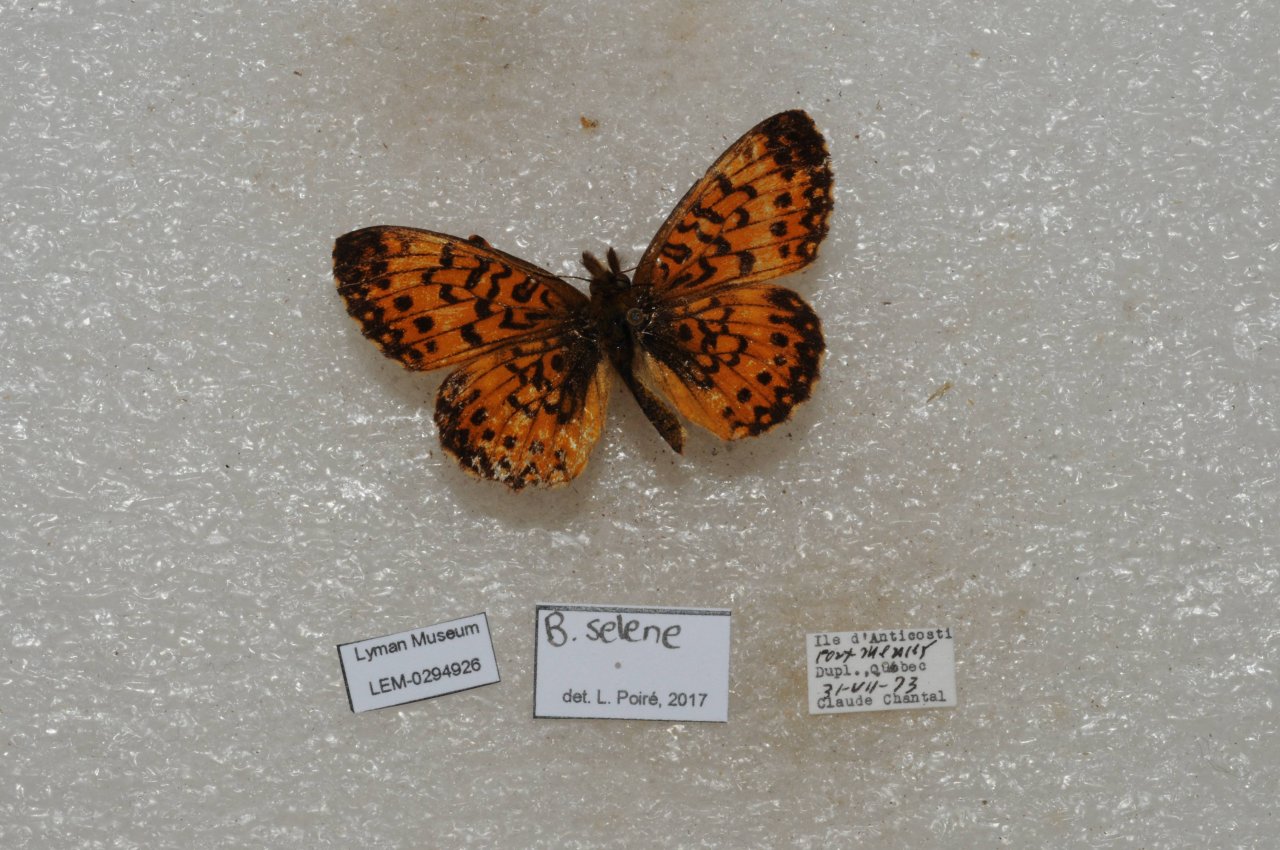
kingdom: Animalia
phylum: Arthropoda
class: Insecta
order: Lepidoptera
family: Nymphalidae
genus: Boloria
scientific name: Boloria selene
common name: Silver-bordered Fritillary
